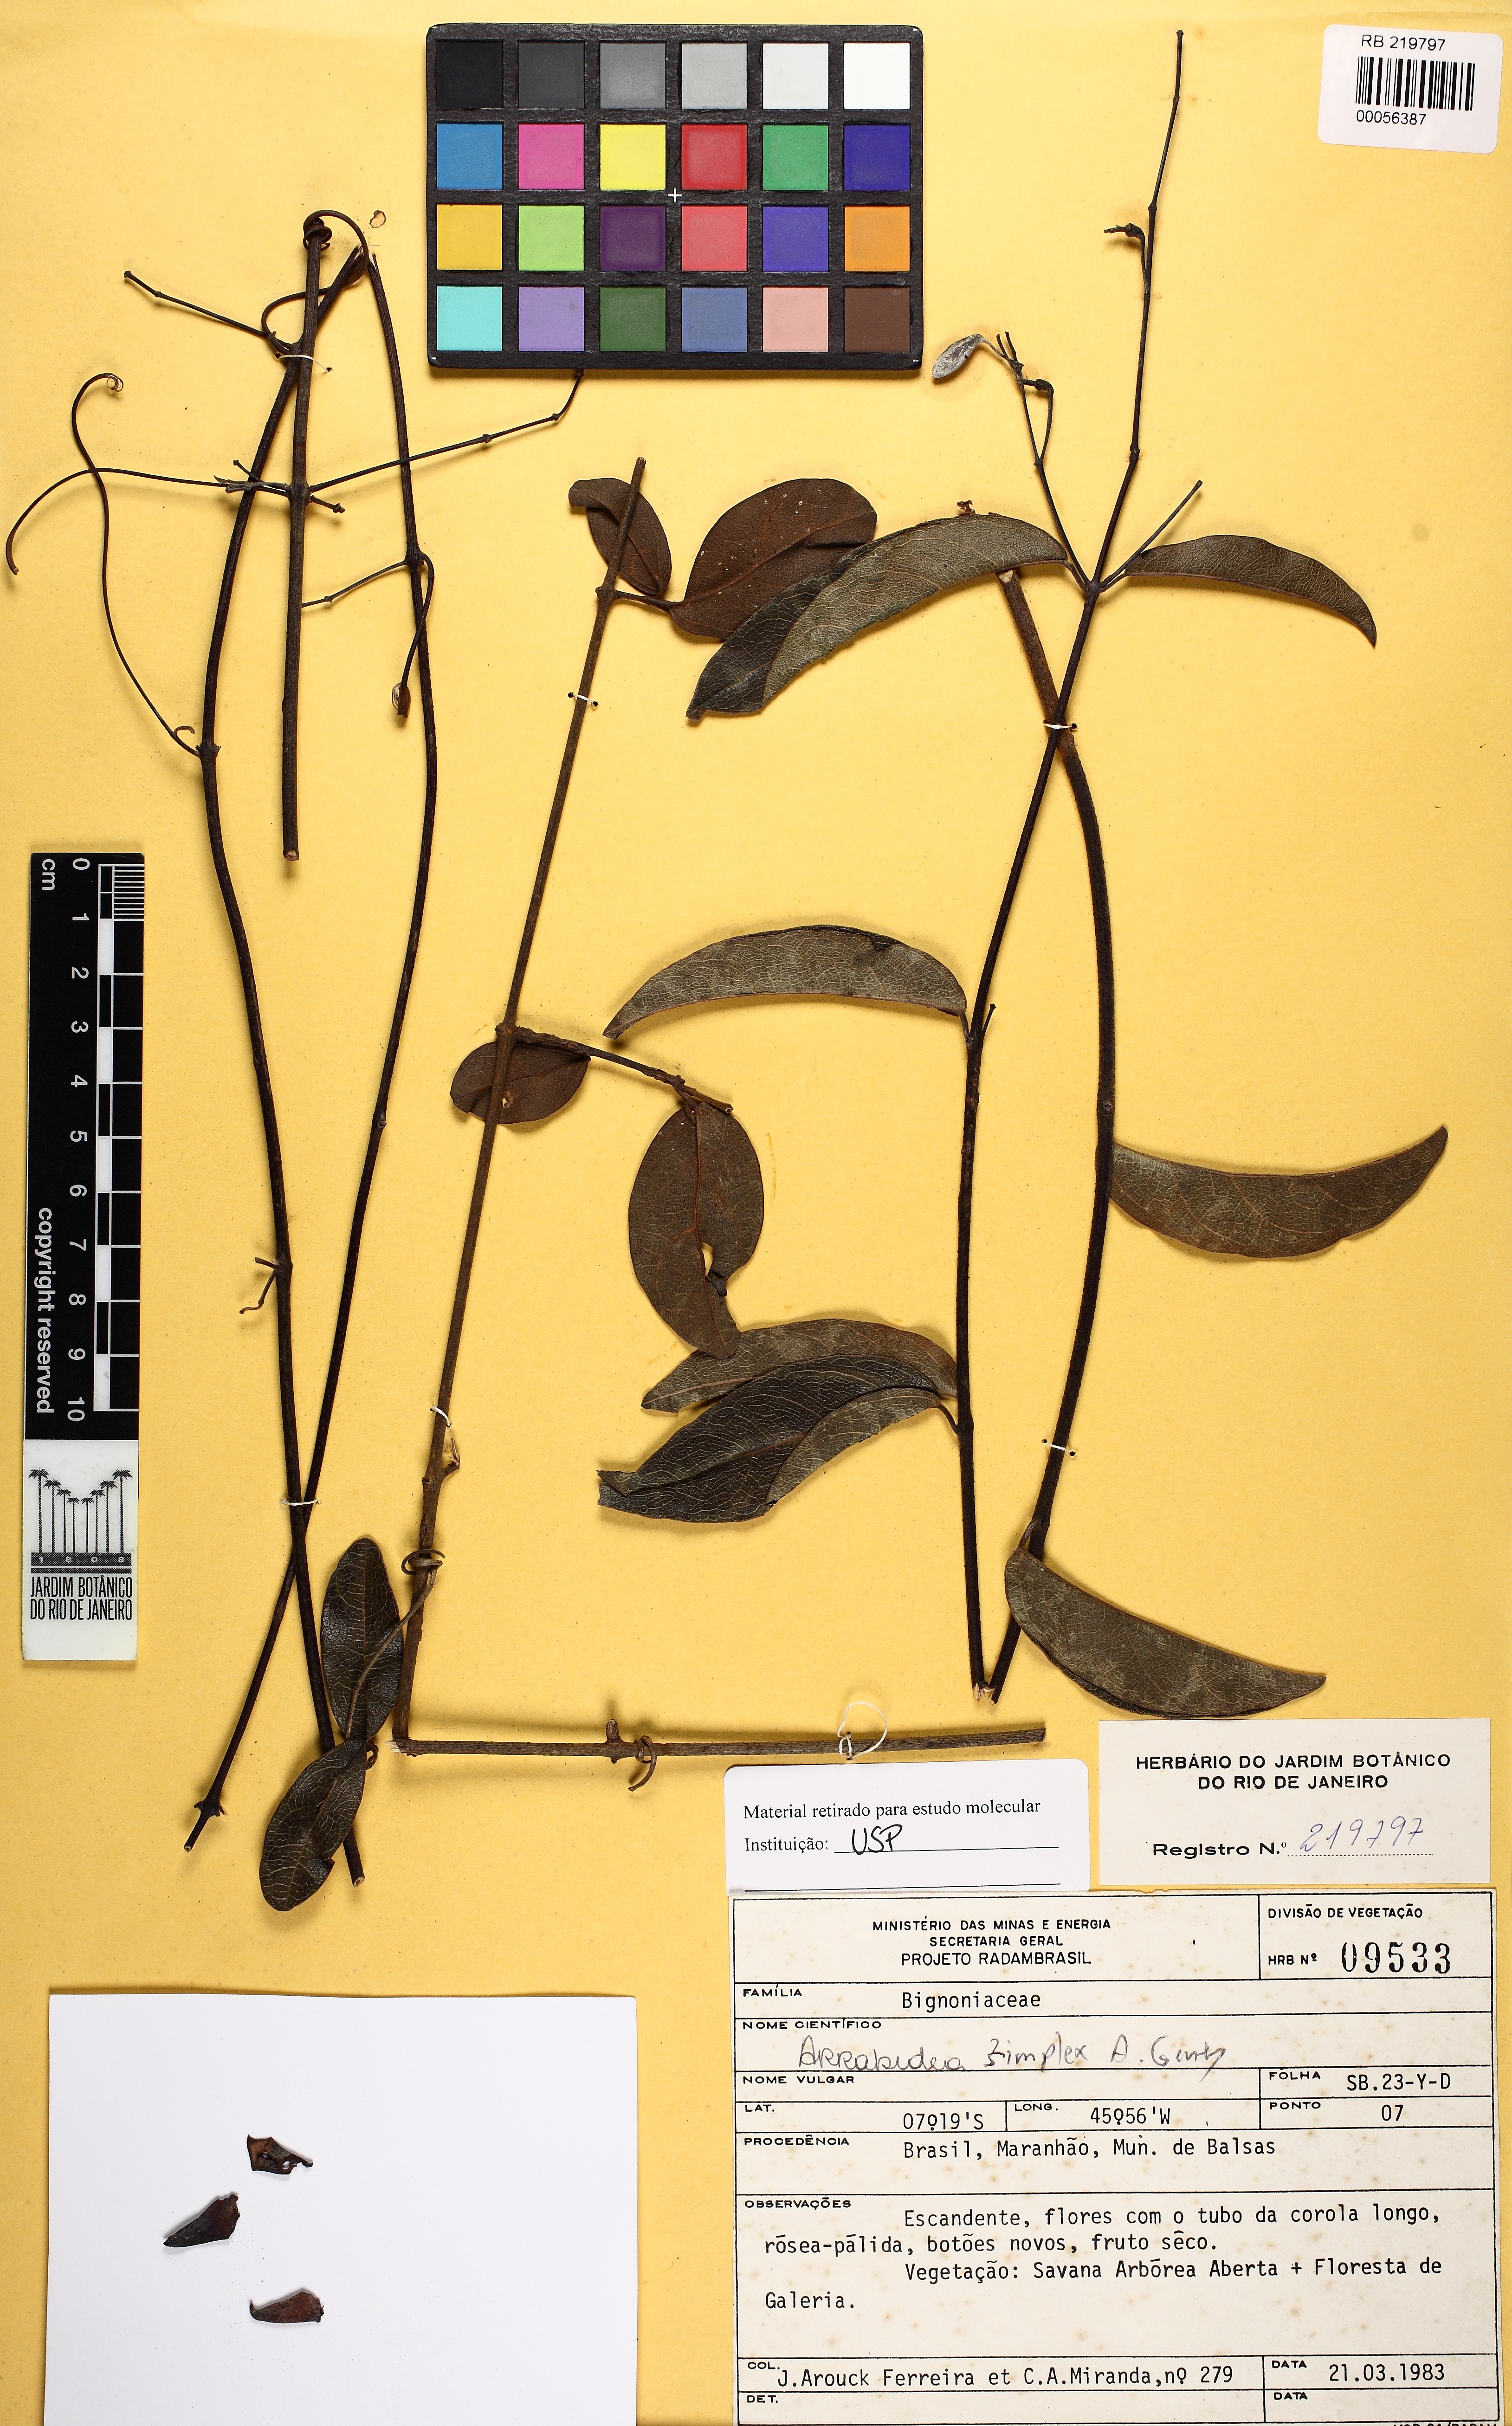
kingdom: Plantae
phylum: Tracheophyta
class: Magnoliopsida
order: Lamiales
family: Bignoniaceae
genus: Fridericia
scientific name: Fridericia simplex
